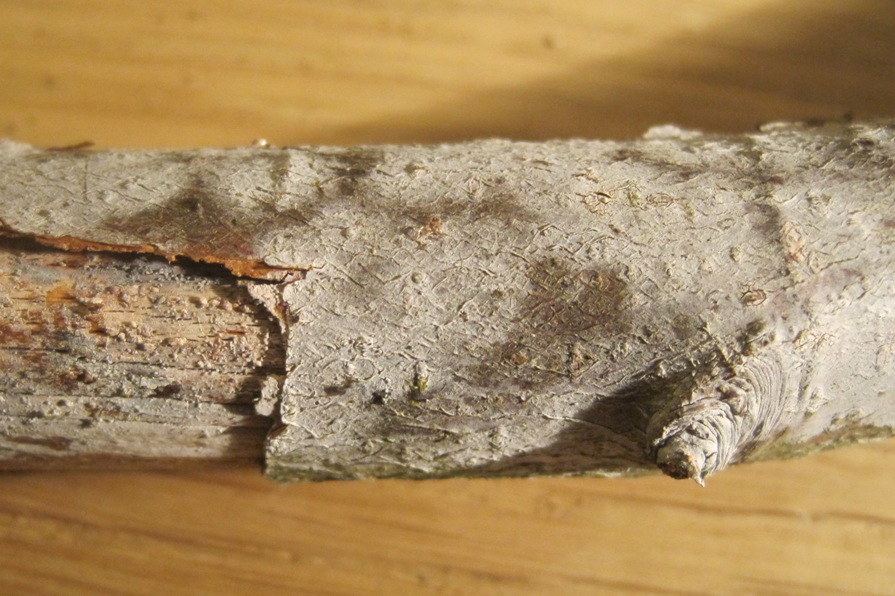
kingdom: Fungi
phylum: Basidiomycota
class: Agaricomycetes
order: Cantharellales
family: Hydnaceae
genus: Sistotrema
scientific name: Sistotrema brinkmannii
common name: bønnesporet kroneskorpe
